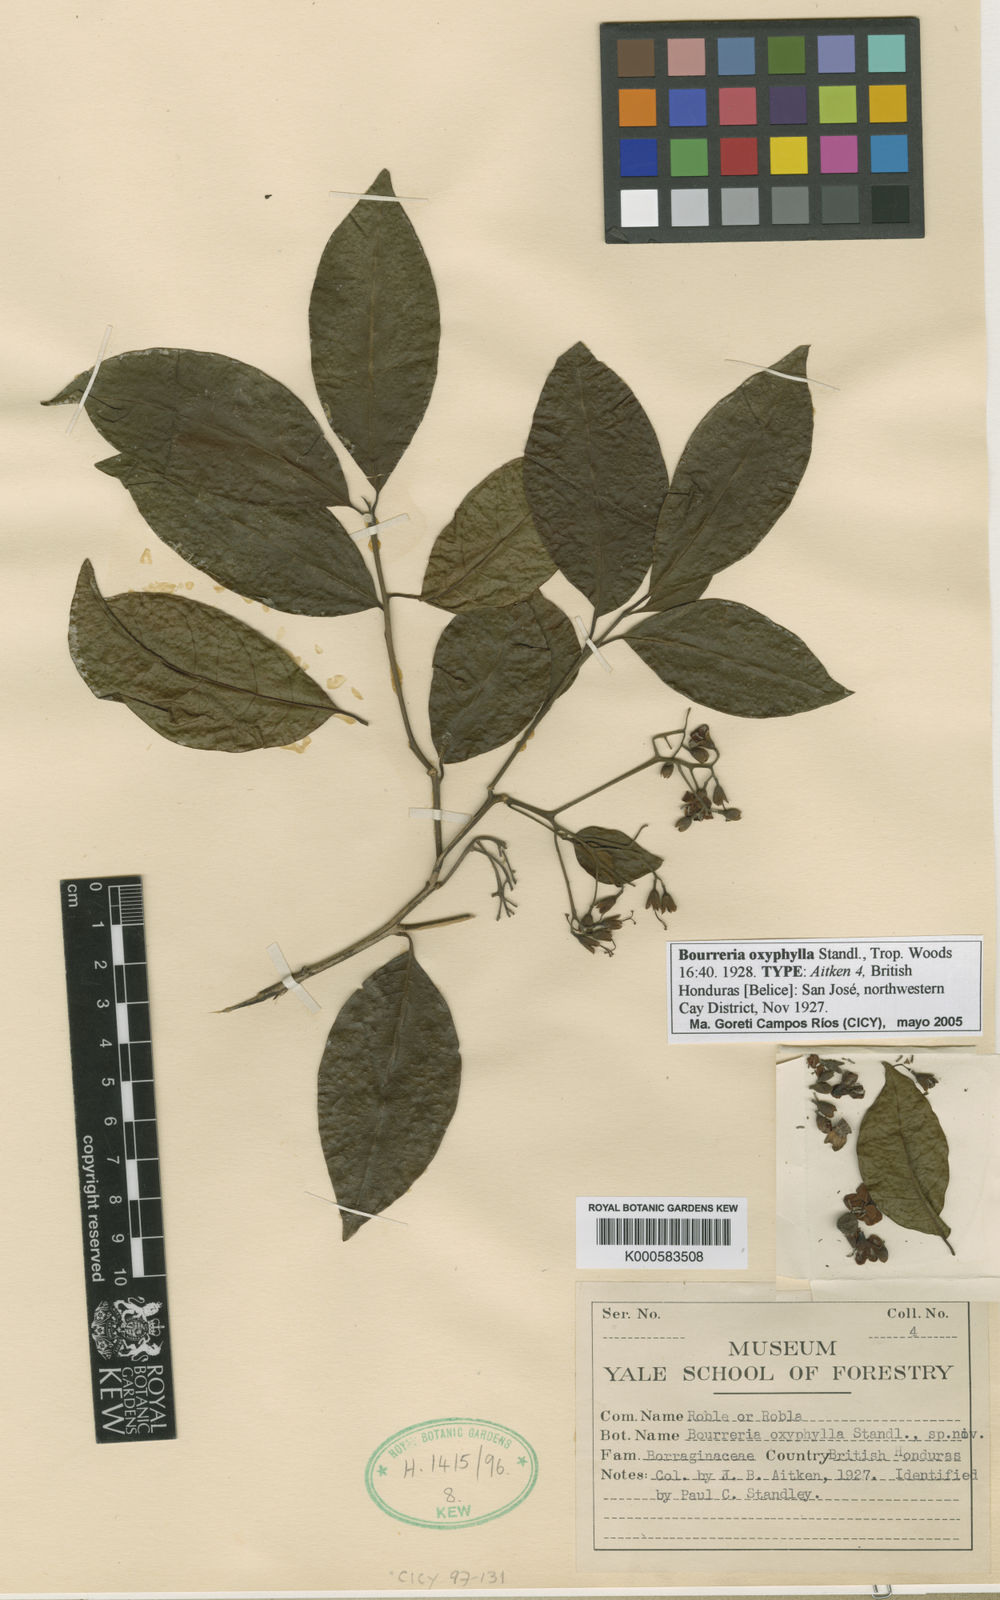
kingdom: Plantae
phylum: Tracheophyta
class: Magnoliopsida
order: Boraginales
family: Ehretiaceae
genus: Bourreria
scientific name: Bourreria mollis
